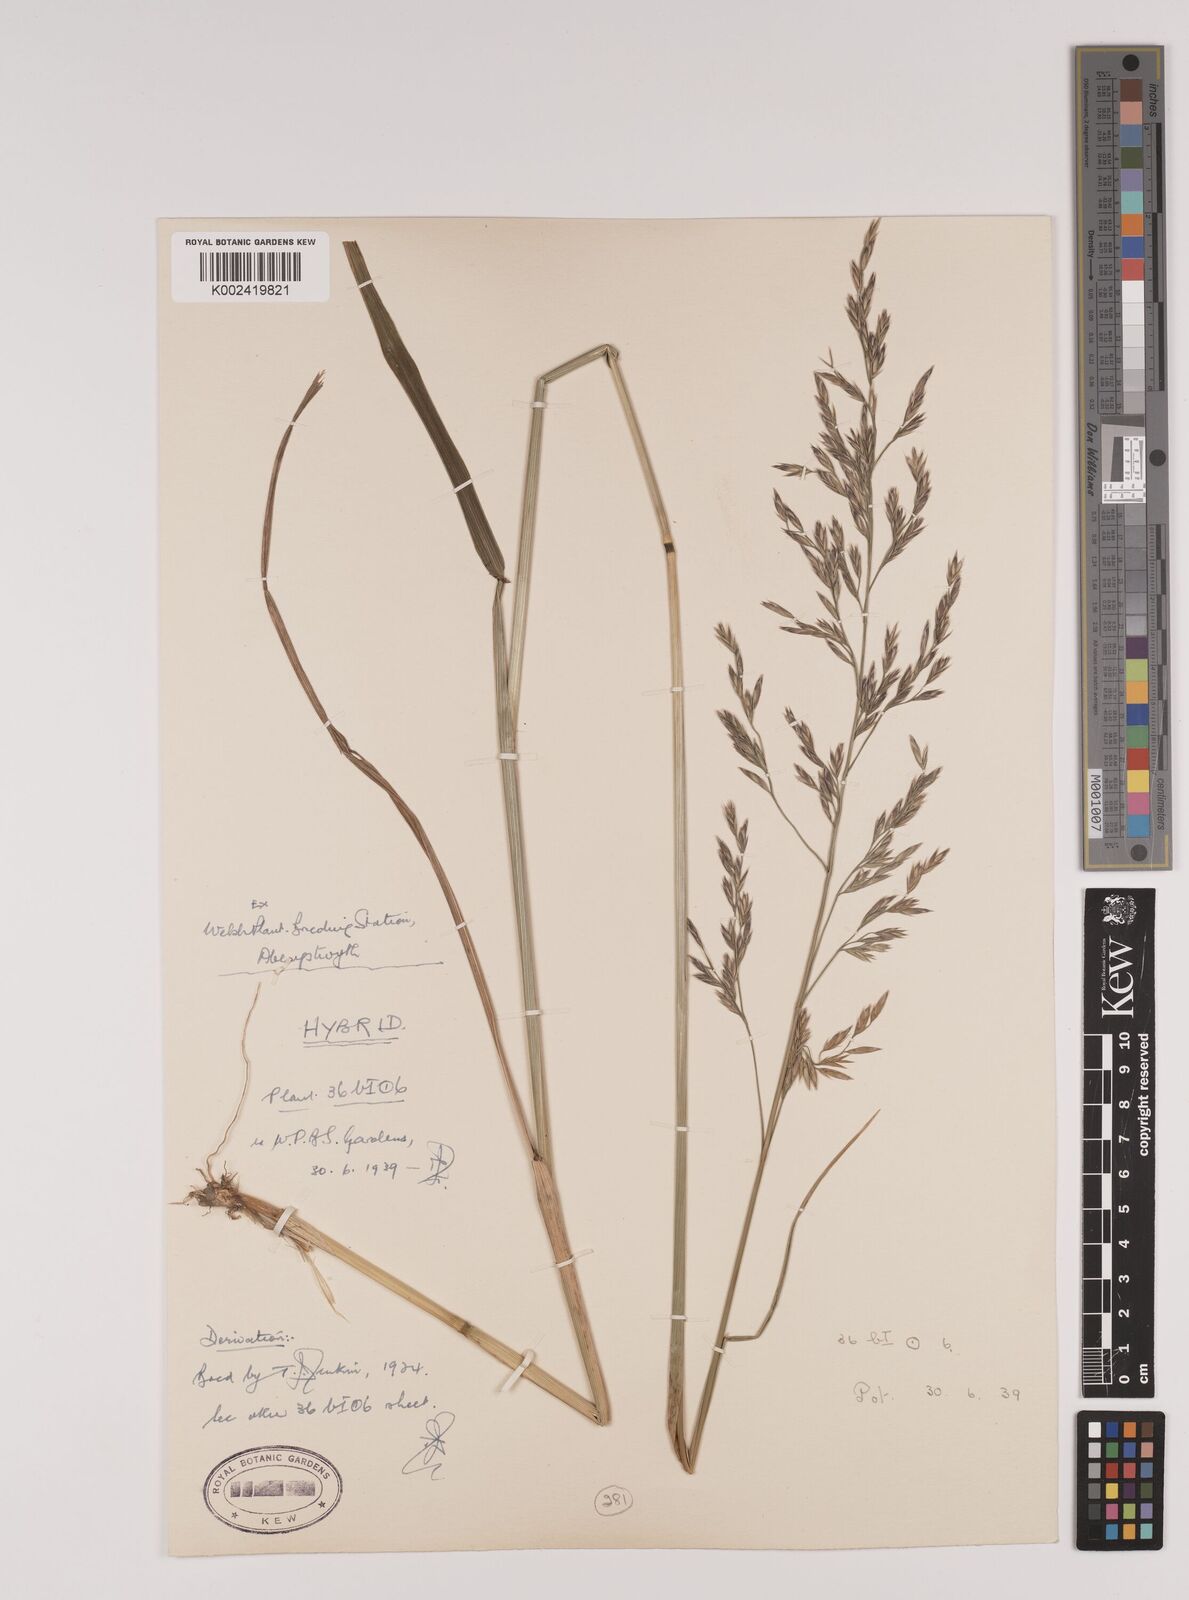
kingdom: Plantae
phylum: Tracheophyta
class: Liliopsida
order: Poales
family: Poaceae
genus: Festuca
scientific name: Festuca rubra
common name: Red fescue
